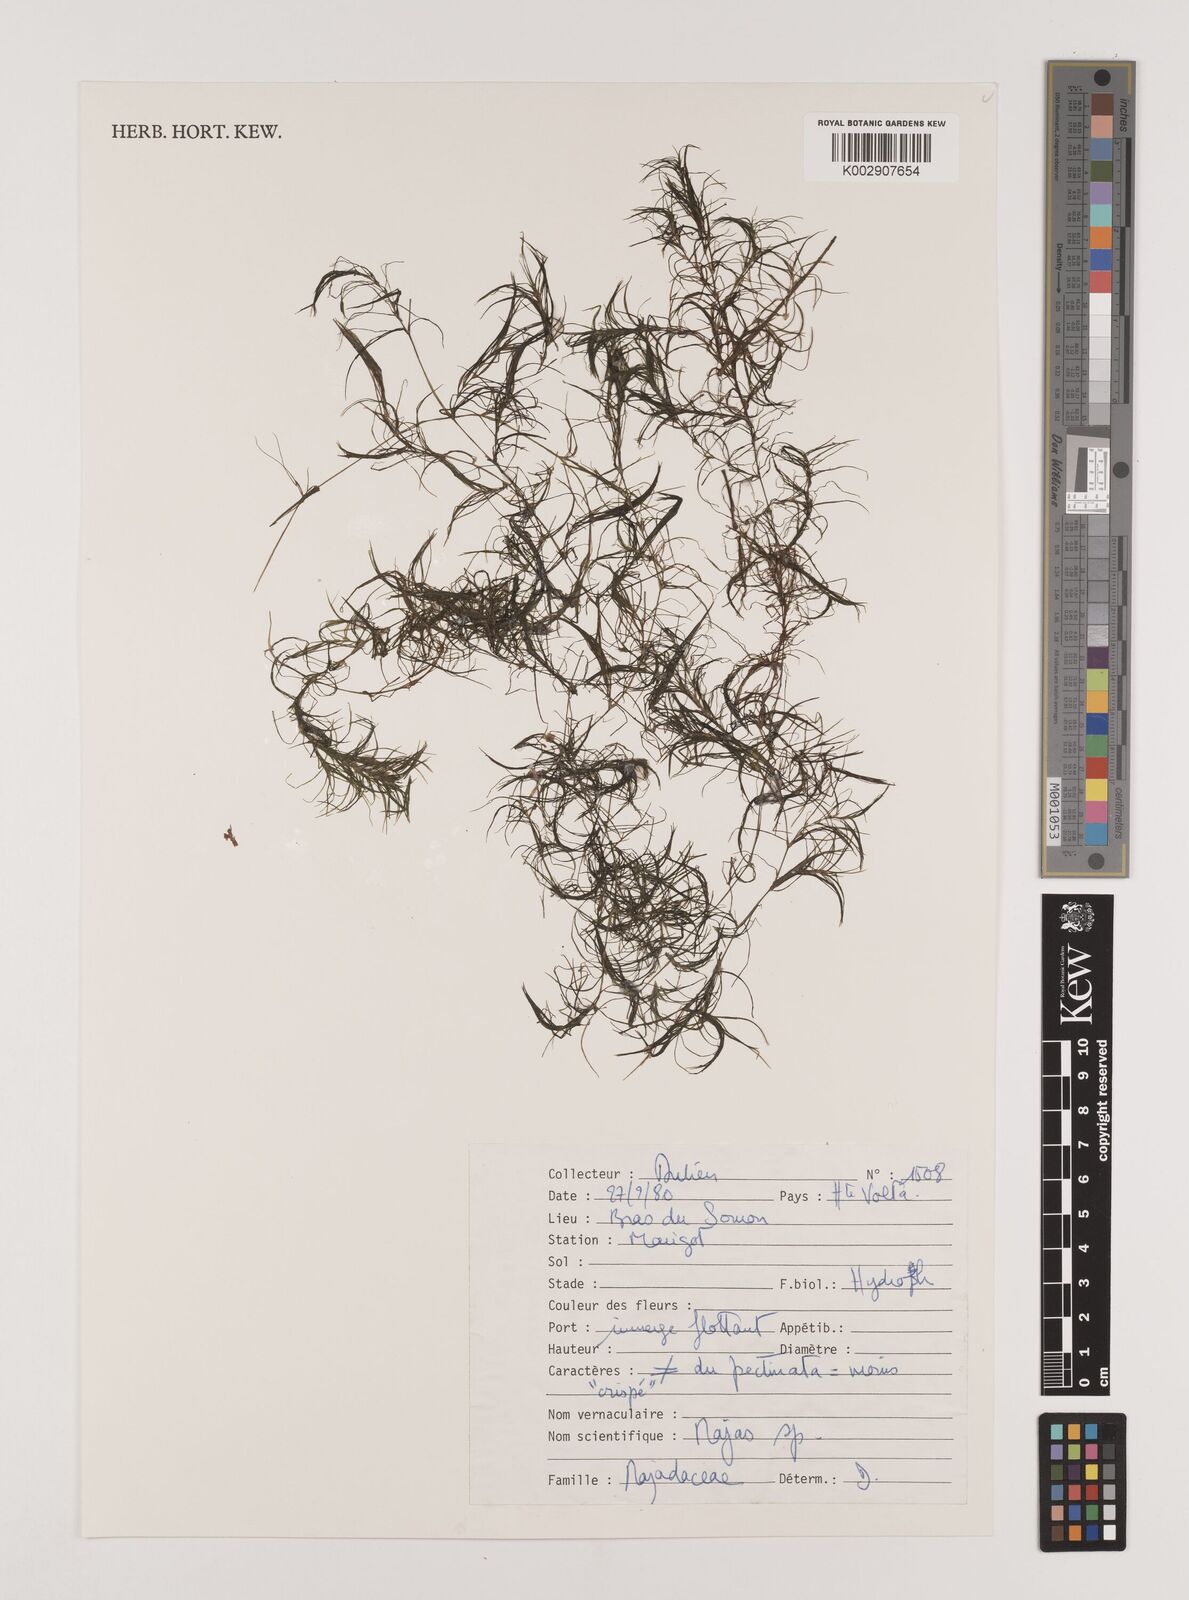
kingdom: Plantae
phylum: Tracheophyta
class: Liliopsida
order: Alismatales
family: Hydrocharitaceae
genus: Najas
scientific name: Najas
